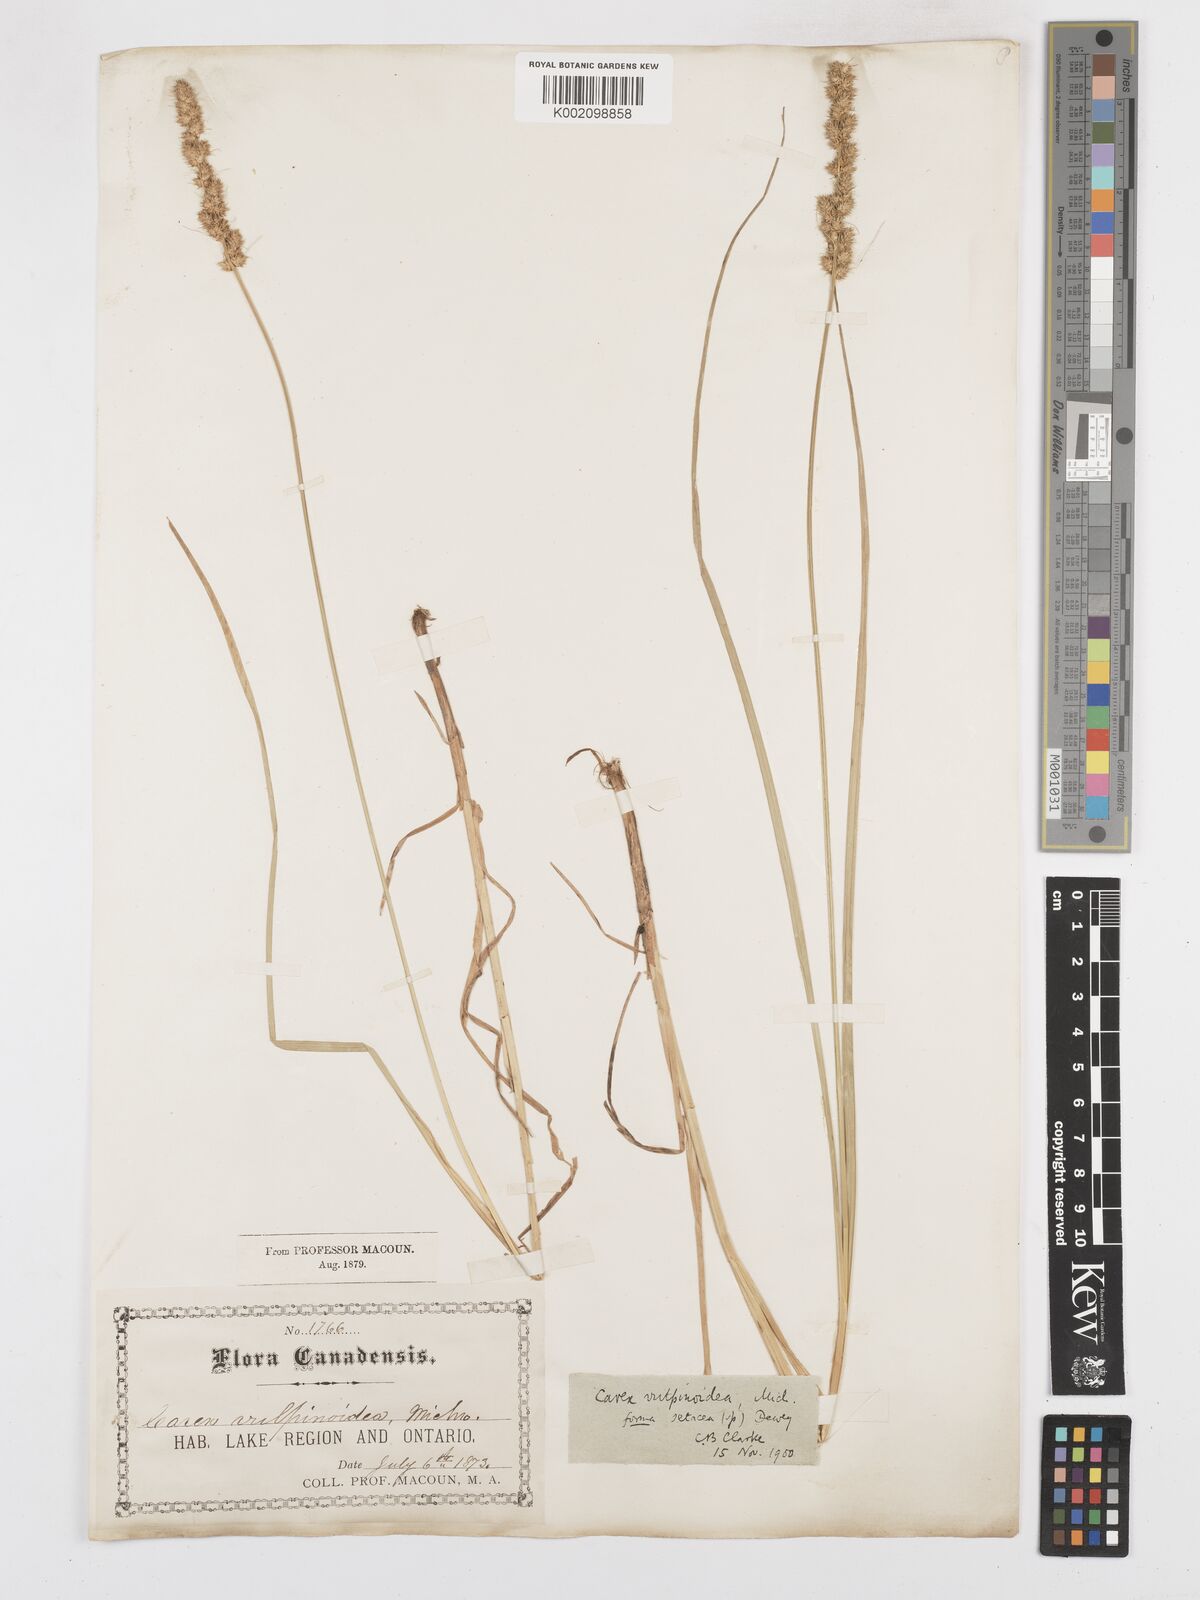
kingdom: Plantae
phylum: Tracheophyta
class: Liliopsida
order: Poales
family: Cyperaceae
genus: Carex
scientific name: Carex vulpinoidea
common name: American fox-sedge
